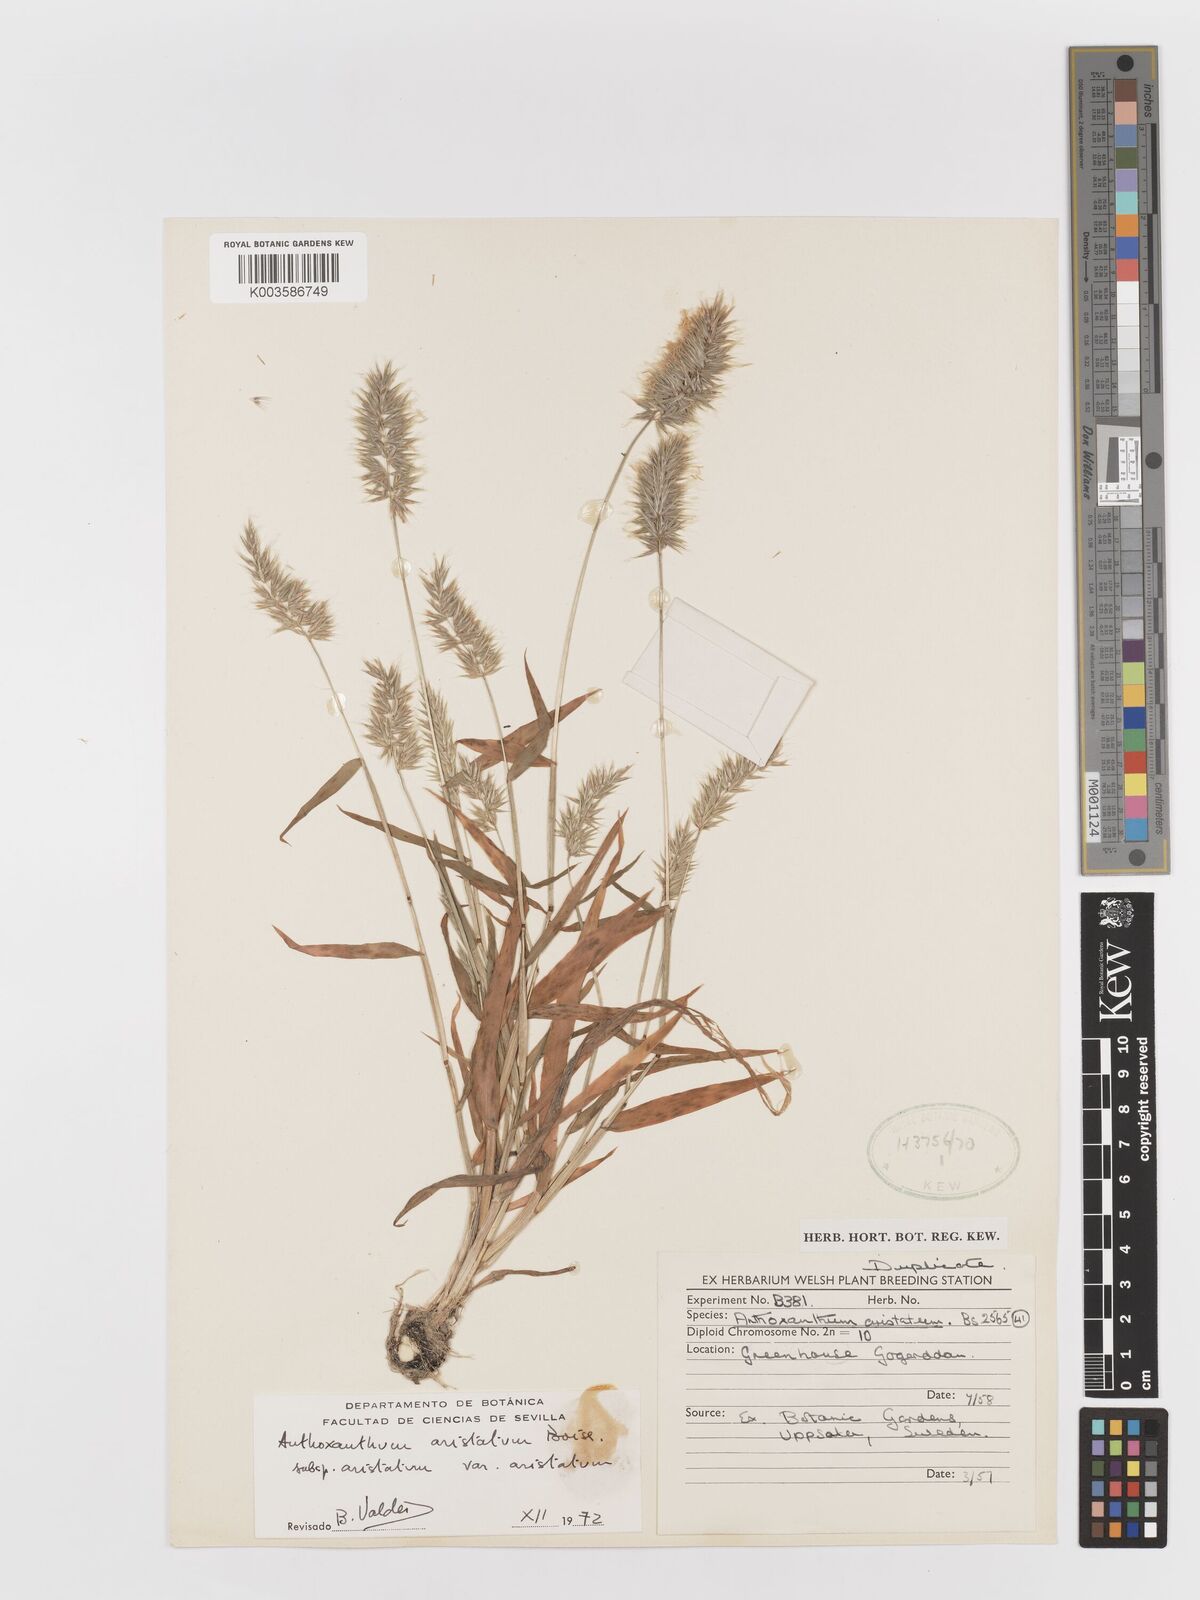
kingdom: Plantae
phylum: Tracheophyta
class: Liliopsida
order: Poales
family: Poaceae
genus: Anthoxanthum
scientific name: Anthoxanthum aristatum
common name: Annual vernal-grass
